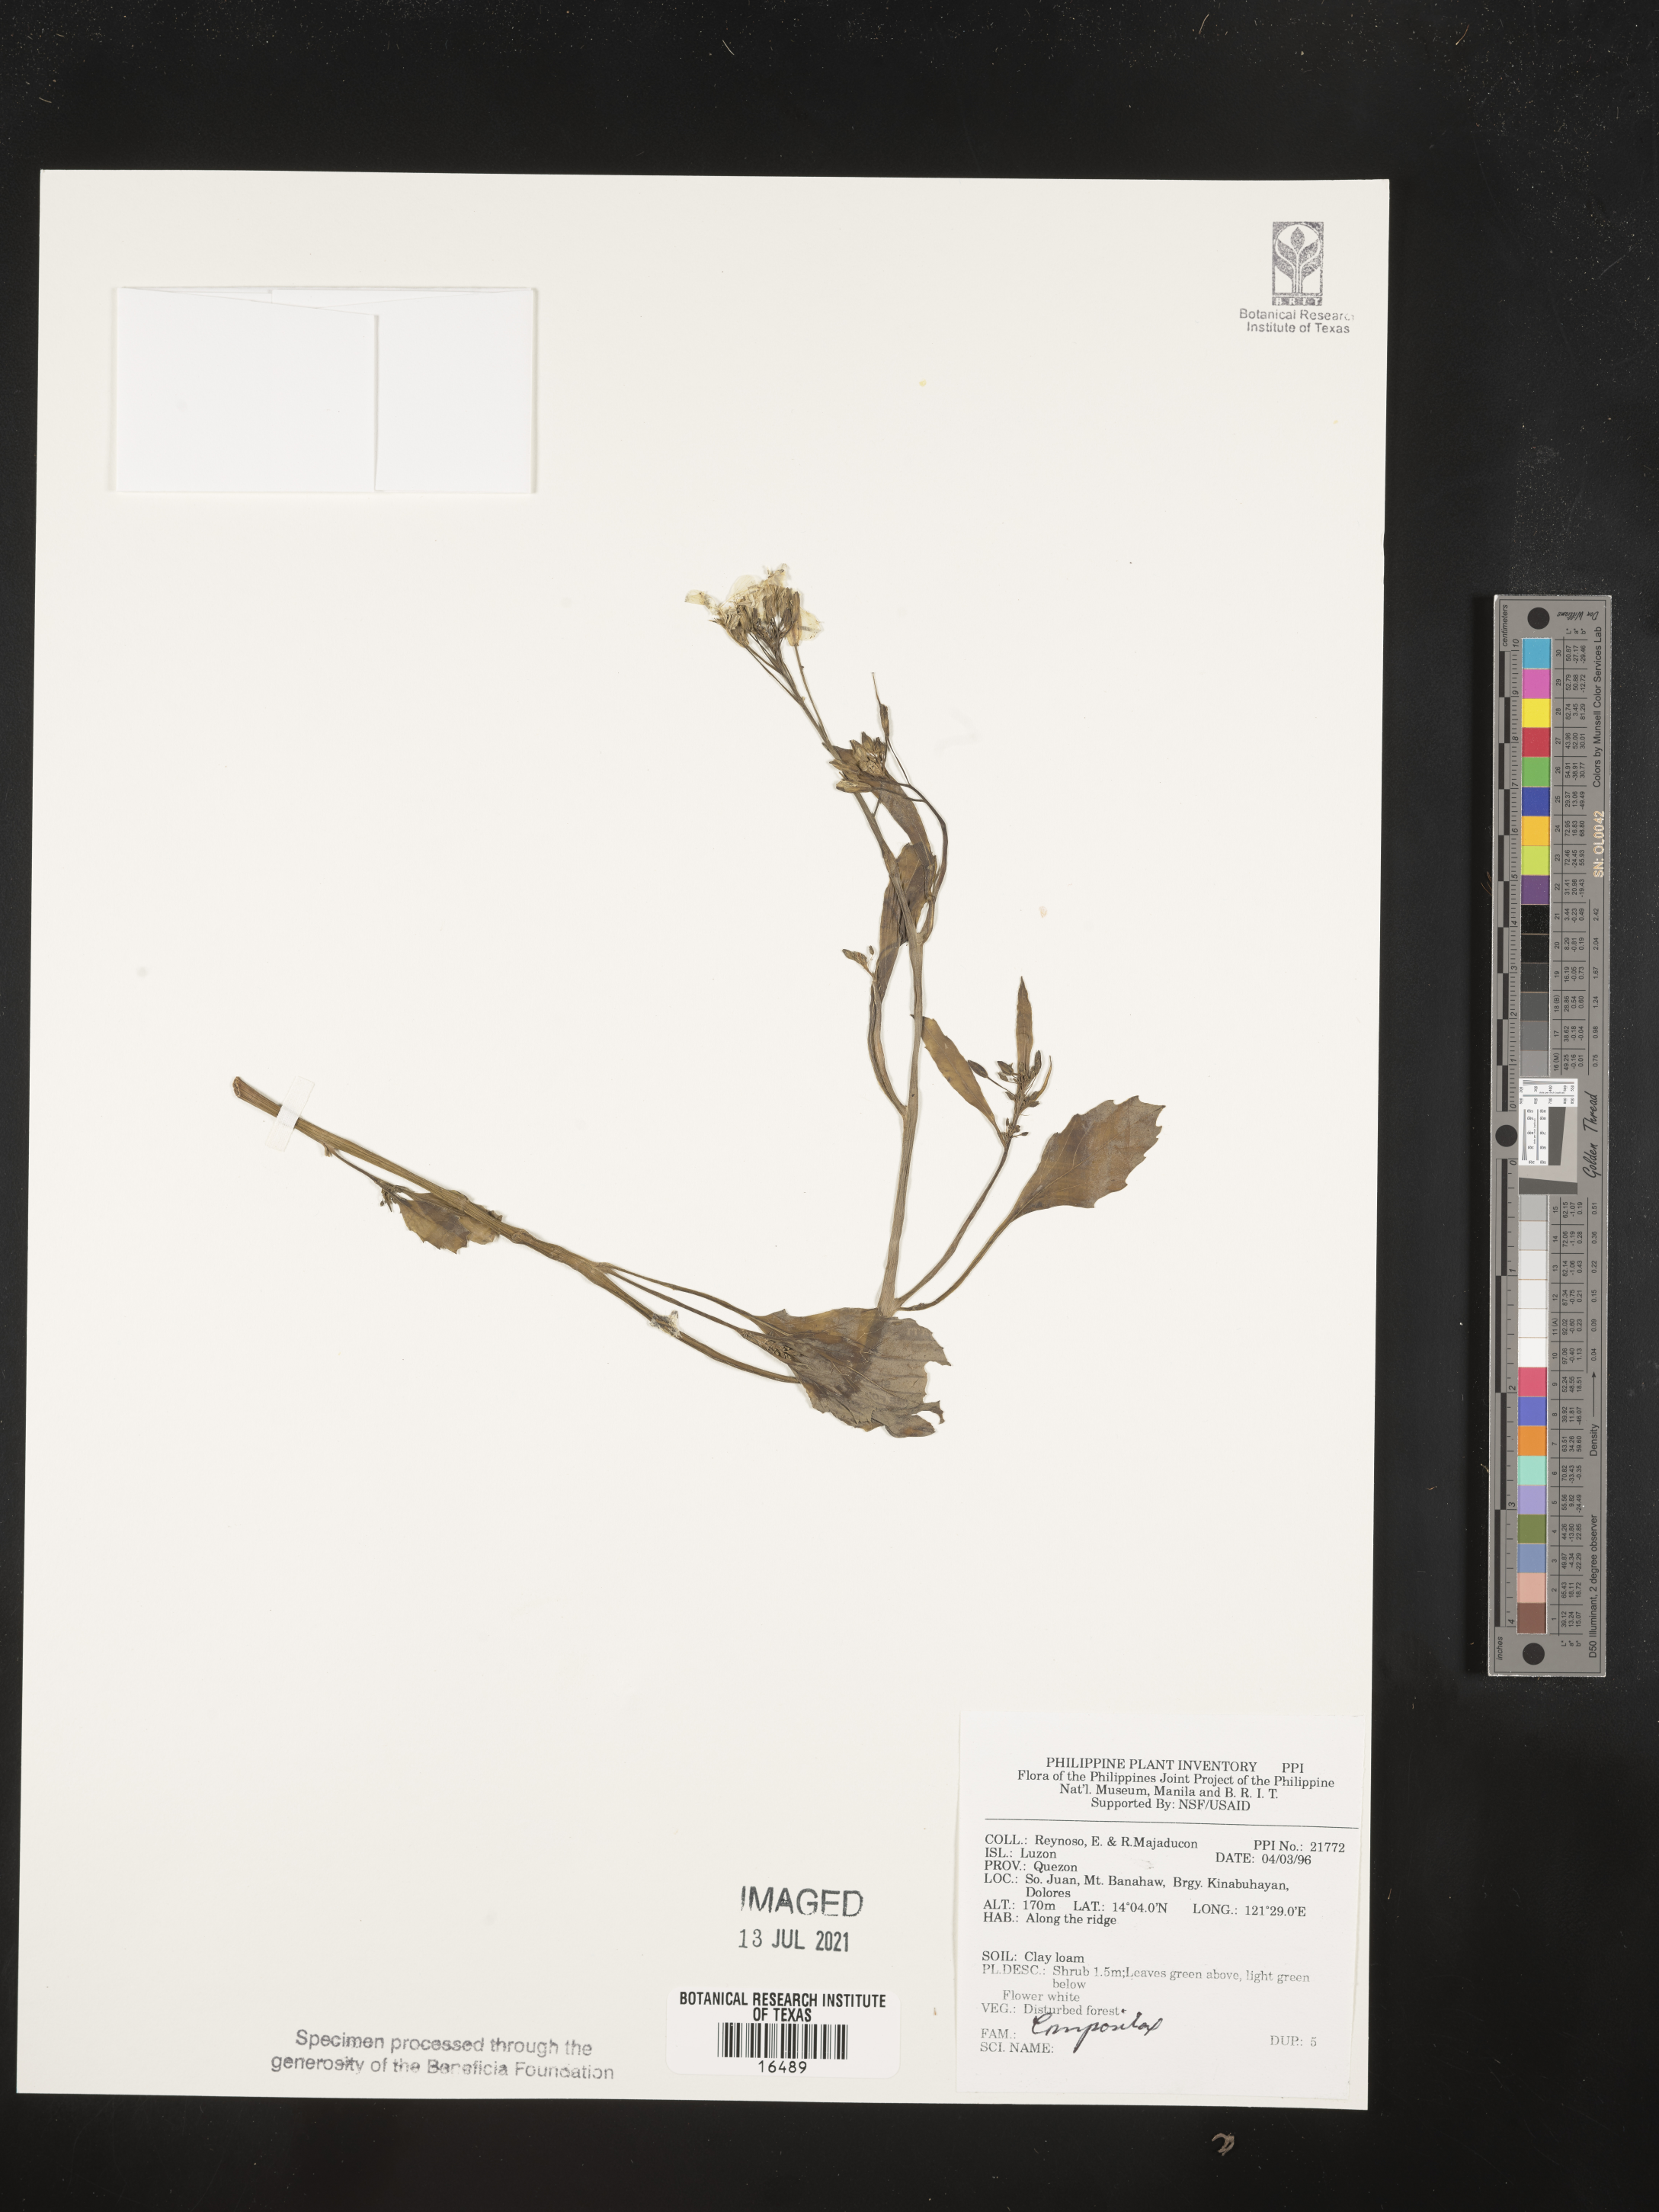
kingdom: Plantae
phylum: Tracheophyta
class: Magnoliopsida
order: Asterales
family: Asteraceae
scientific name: Asteraceae
